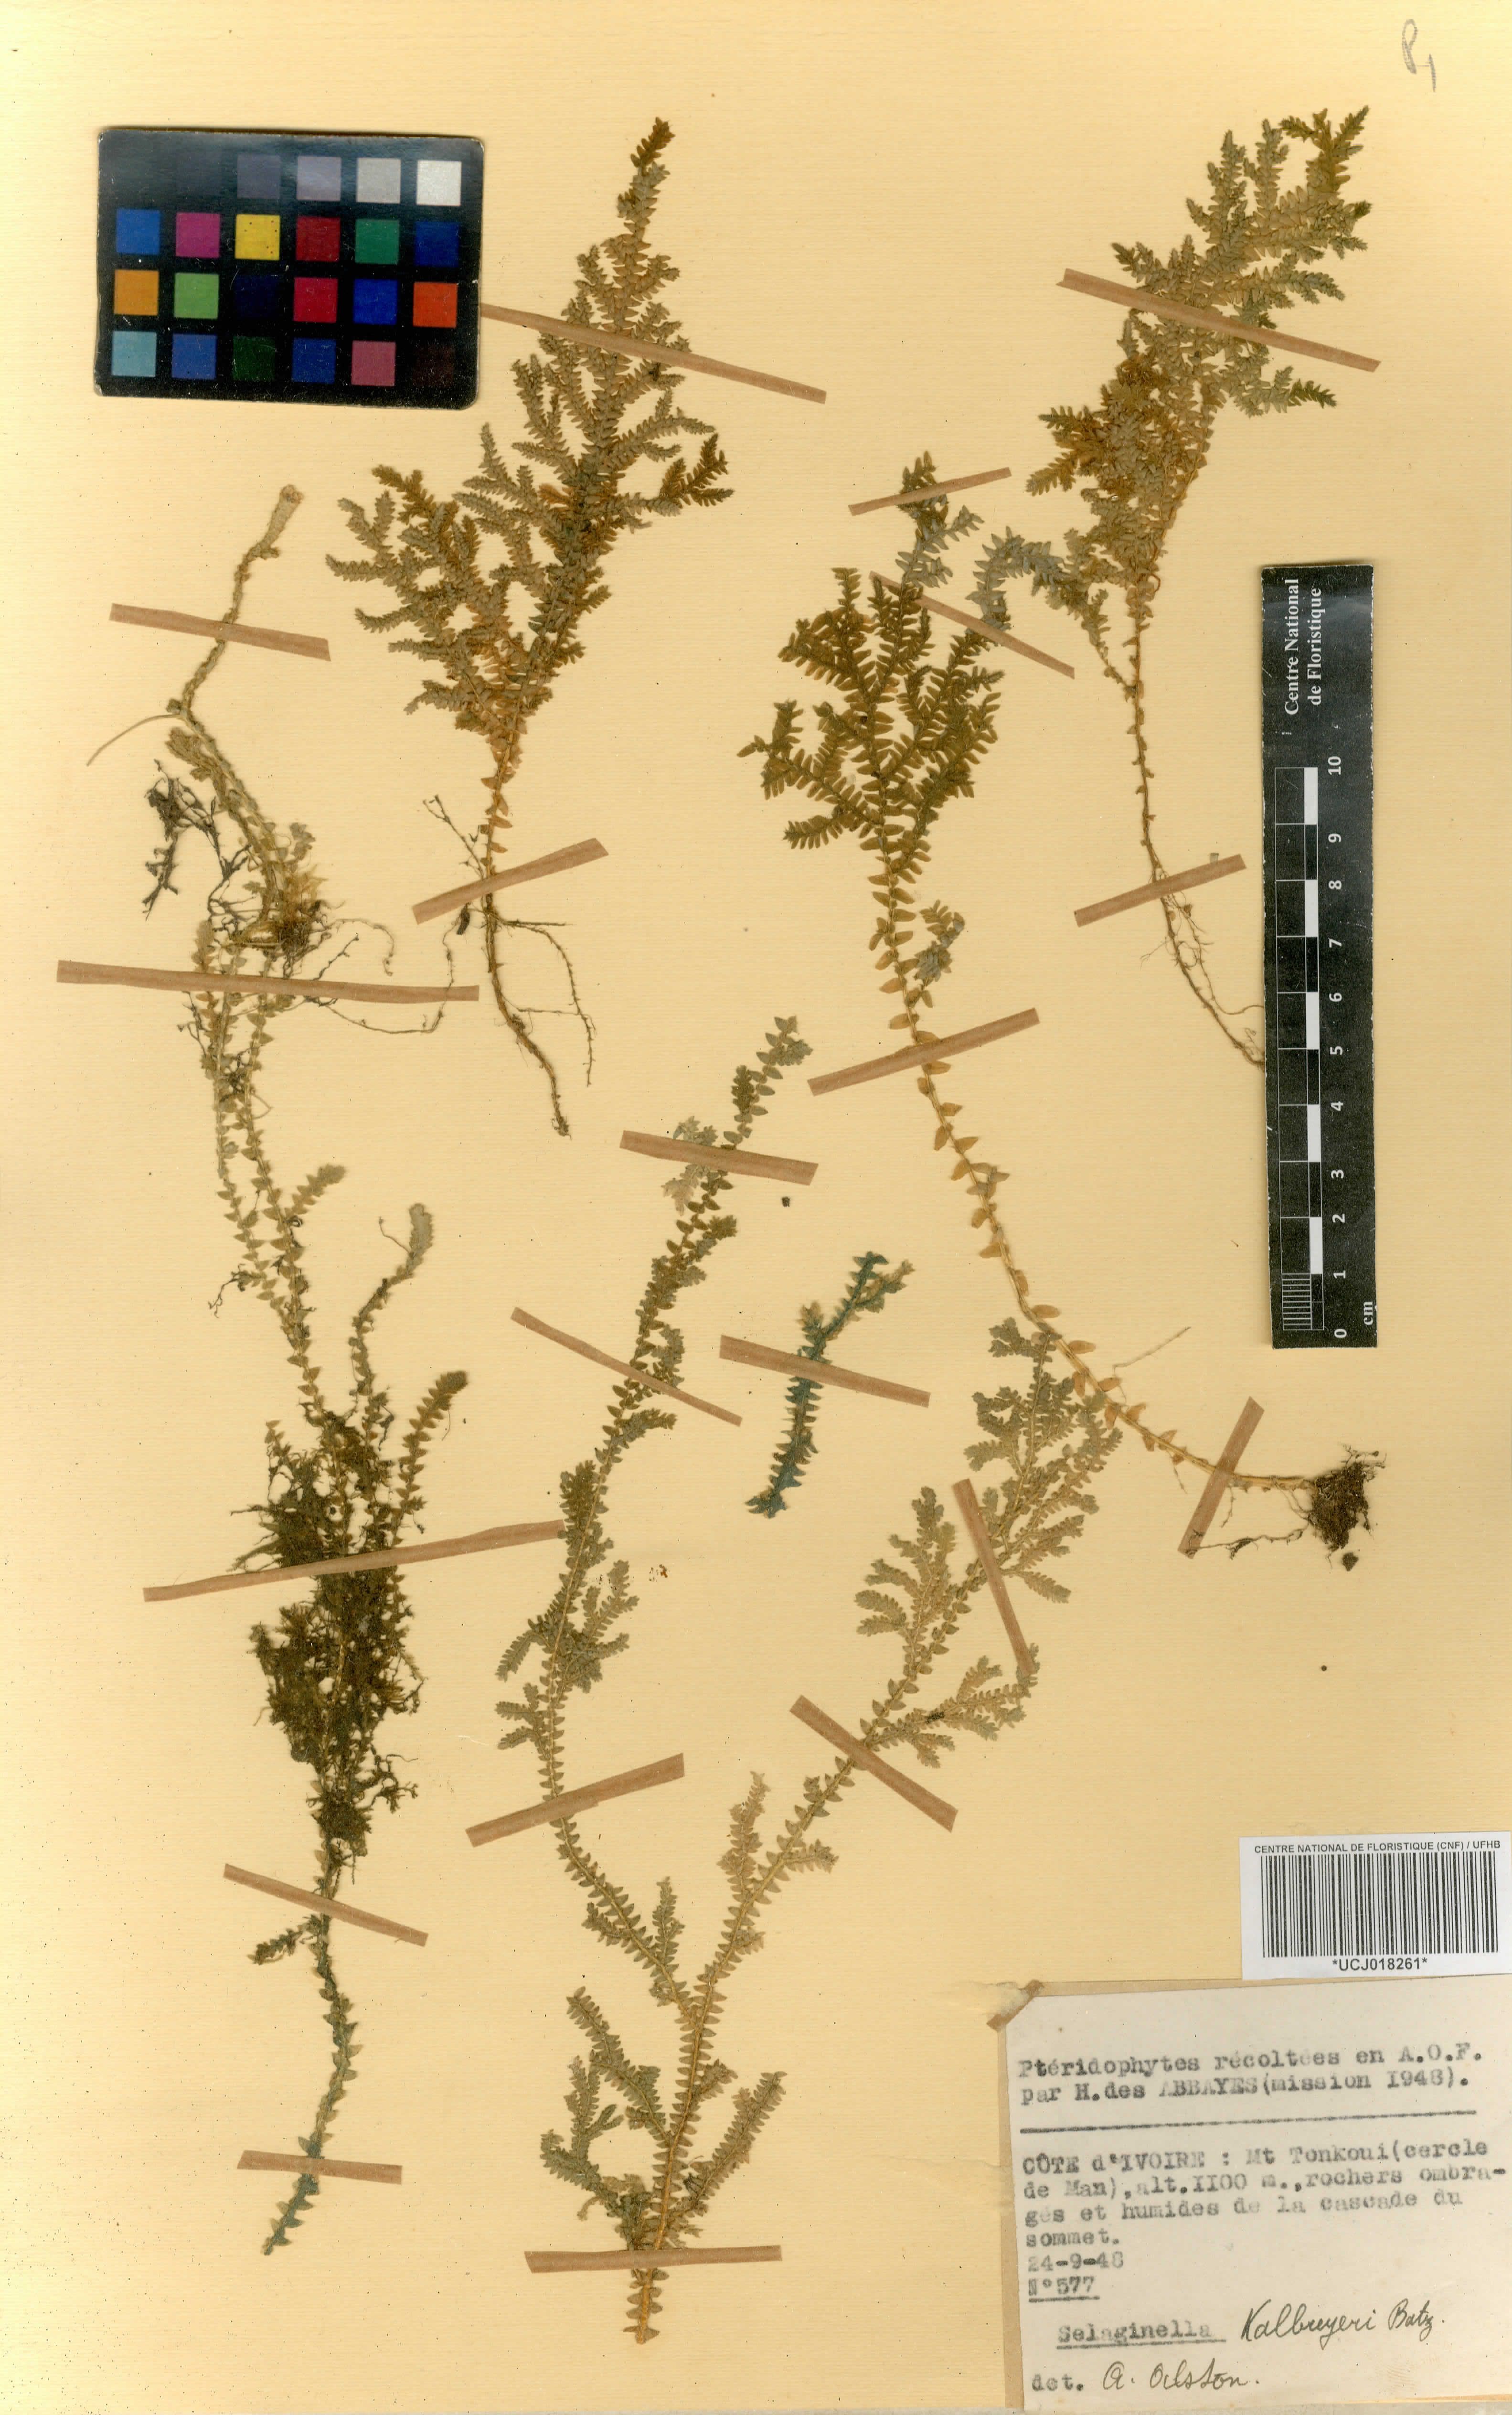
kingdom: Plantae
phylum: Tracheophyta
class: Lycopodiopsida
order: Selaginellales
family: Selaginellaceae
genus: Selaginella
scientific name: Selaginella kalbreyeri
